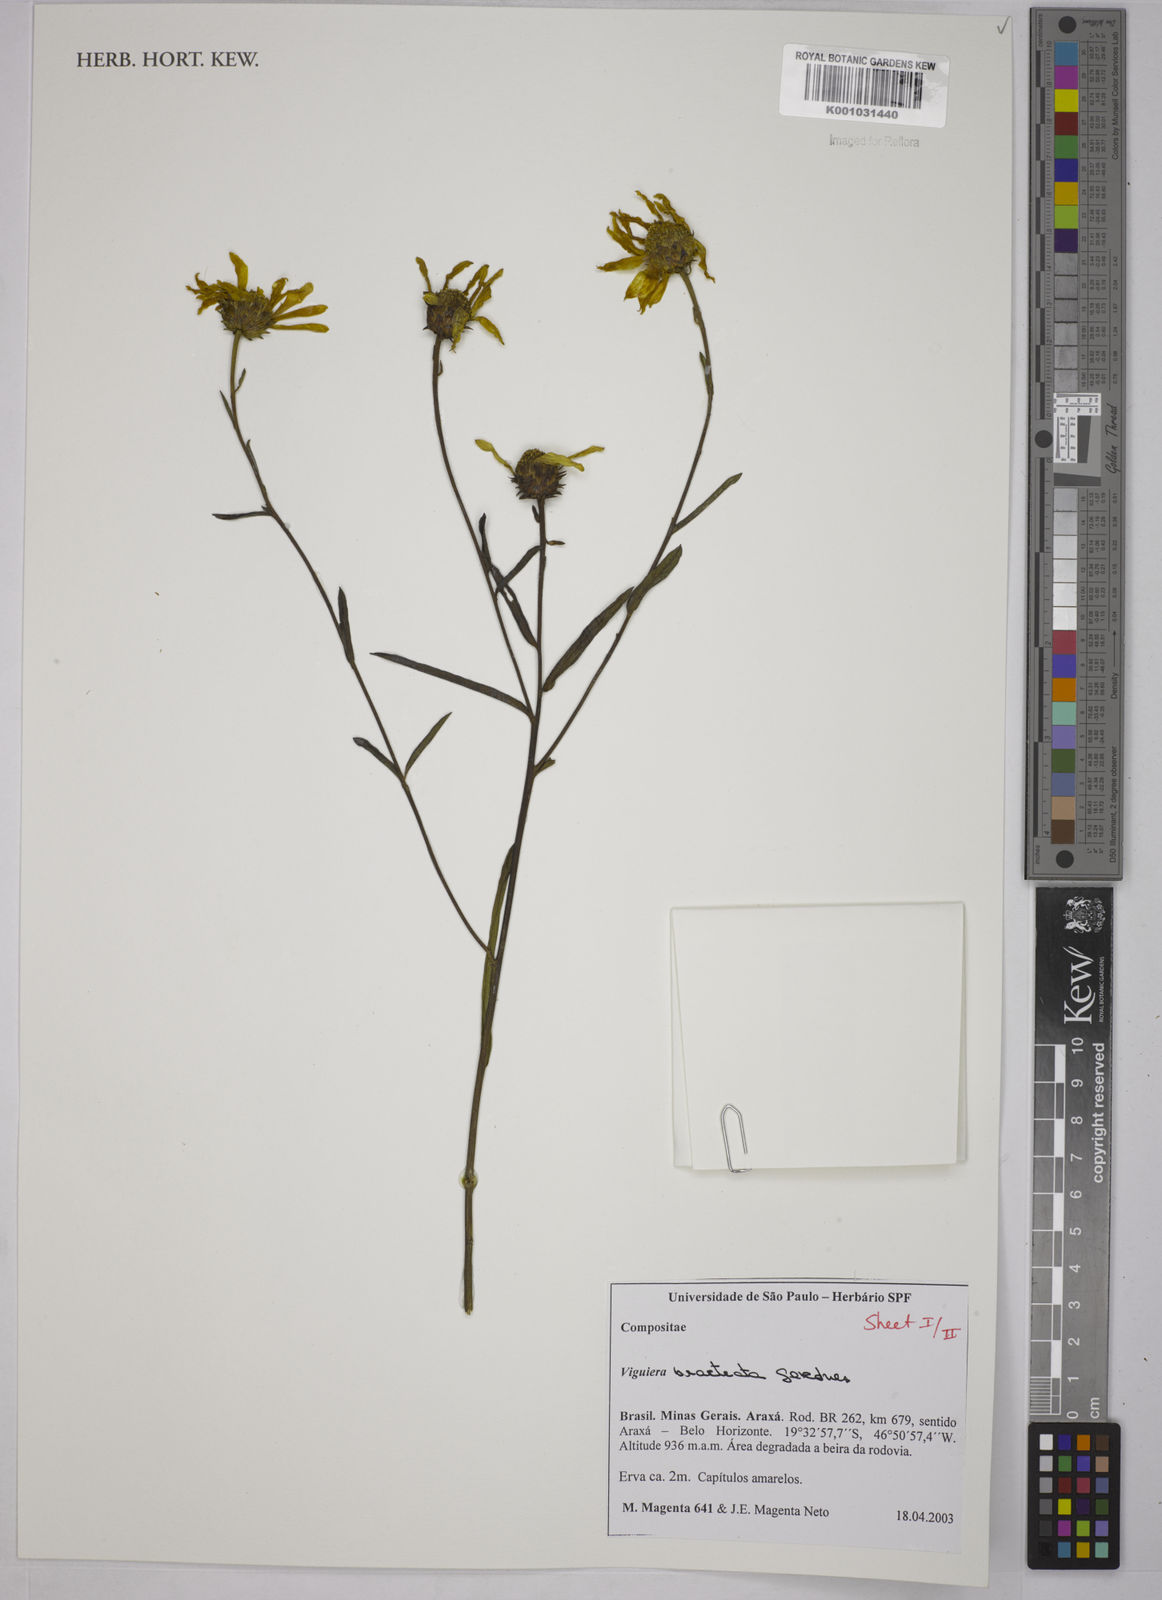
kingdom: Plantae
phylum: Tracheophyta
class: Magnoliopsida
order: Asterales
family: Asteraceae
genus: Aldama
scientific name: Aldama bracteata
